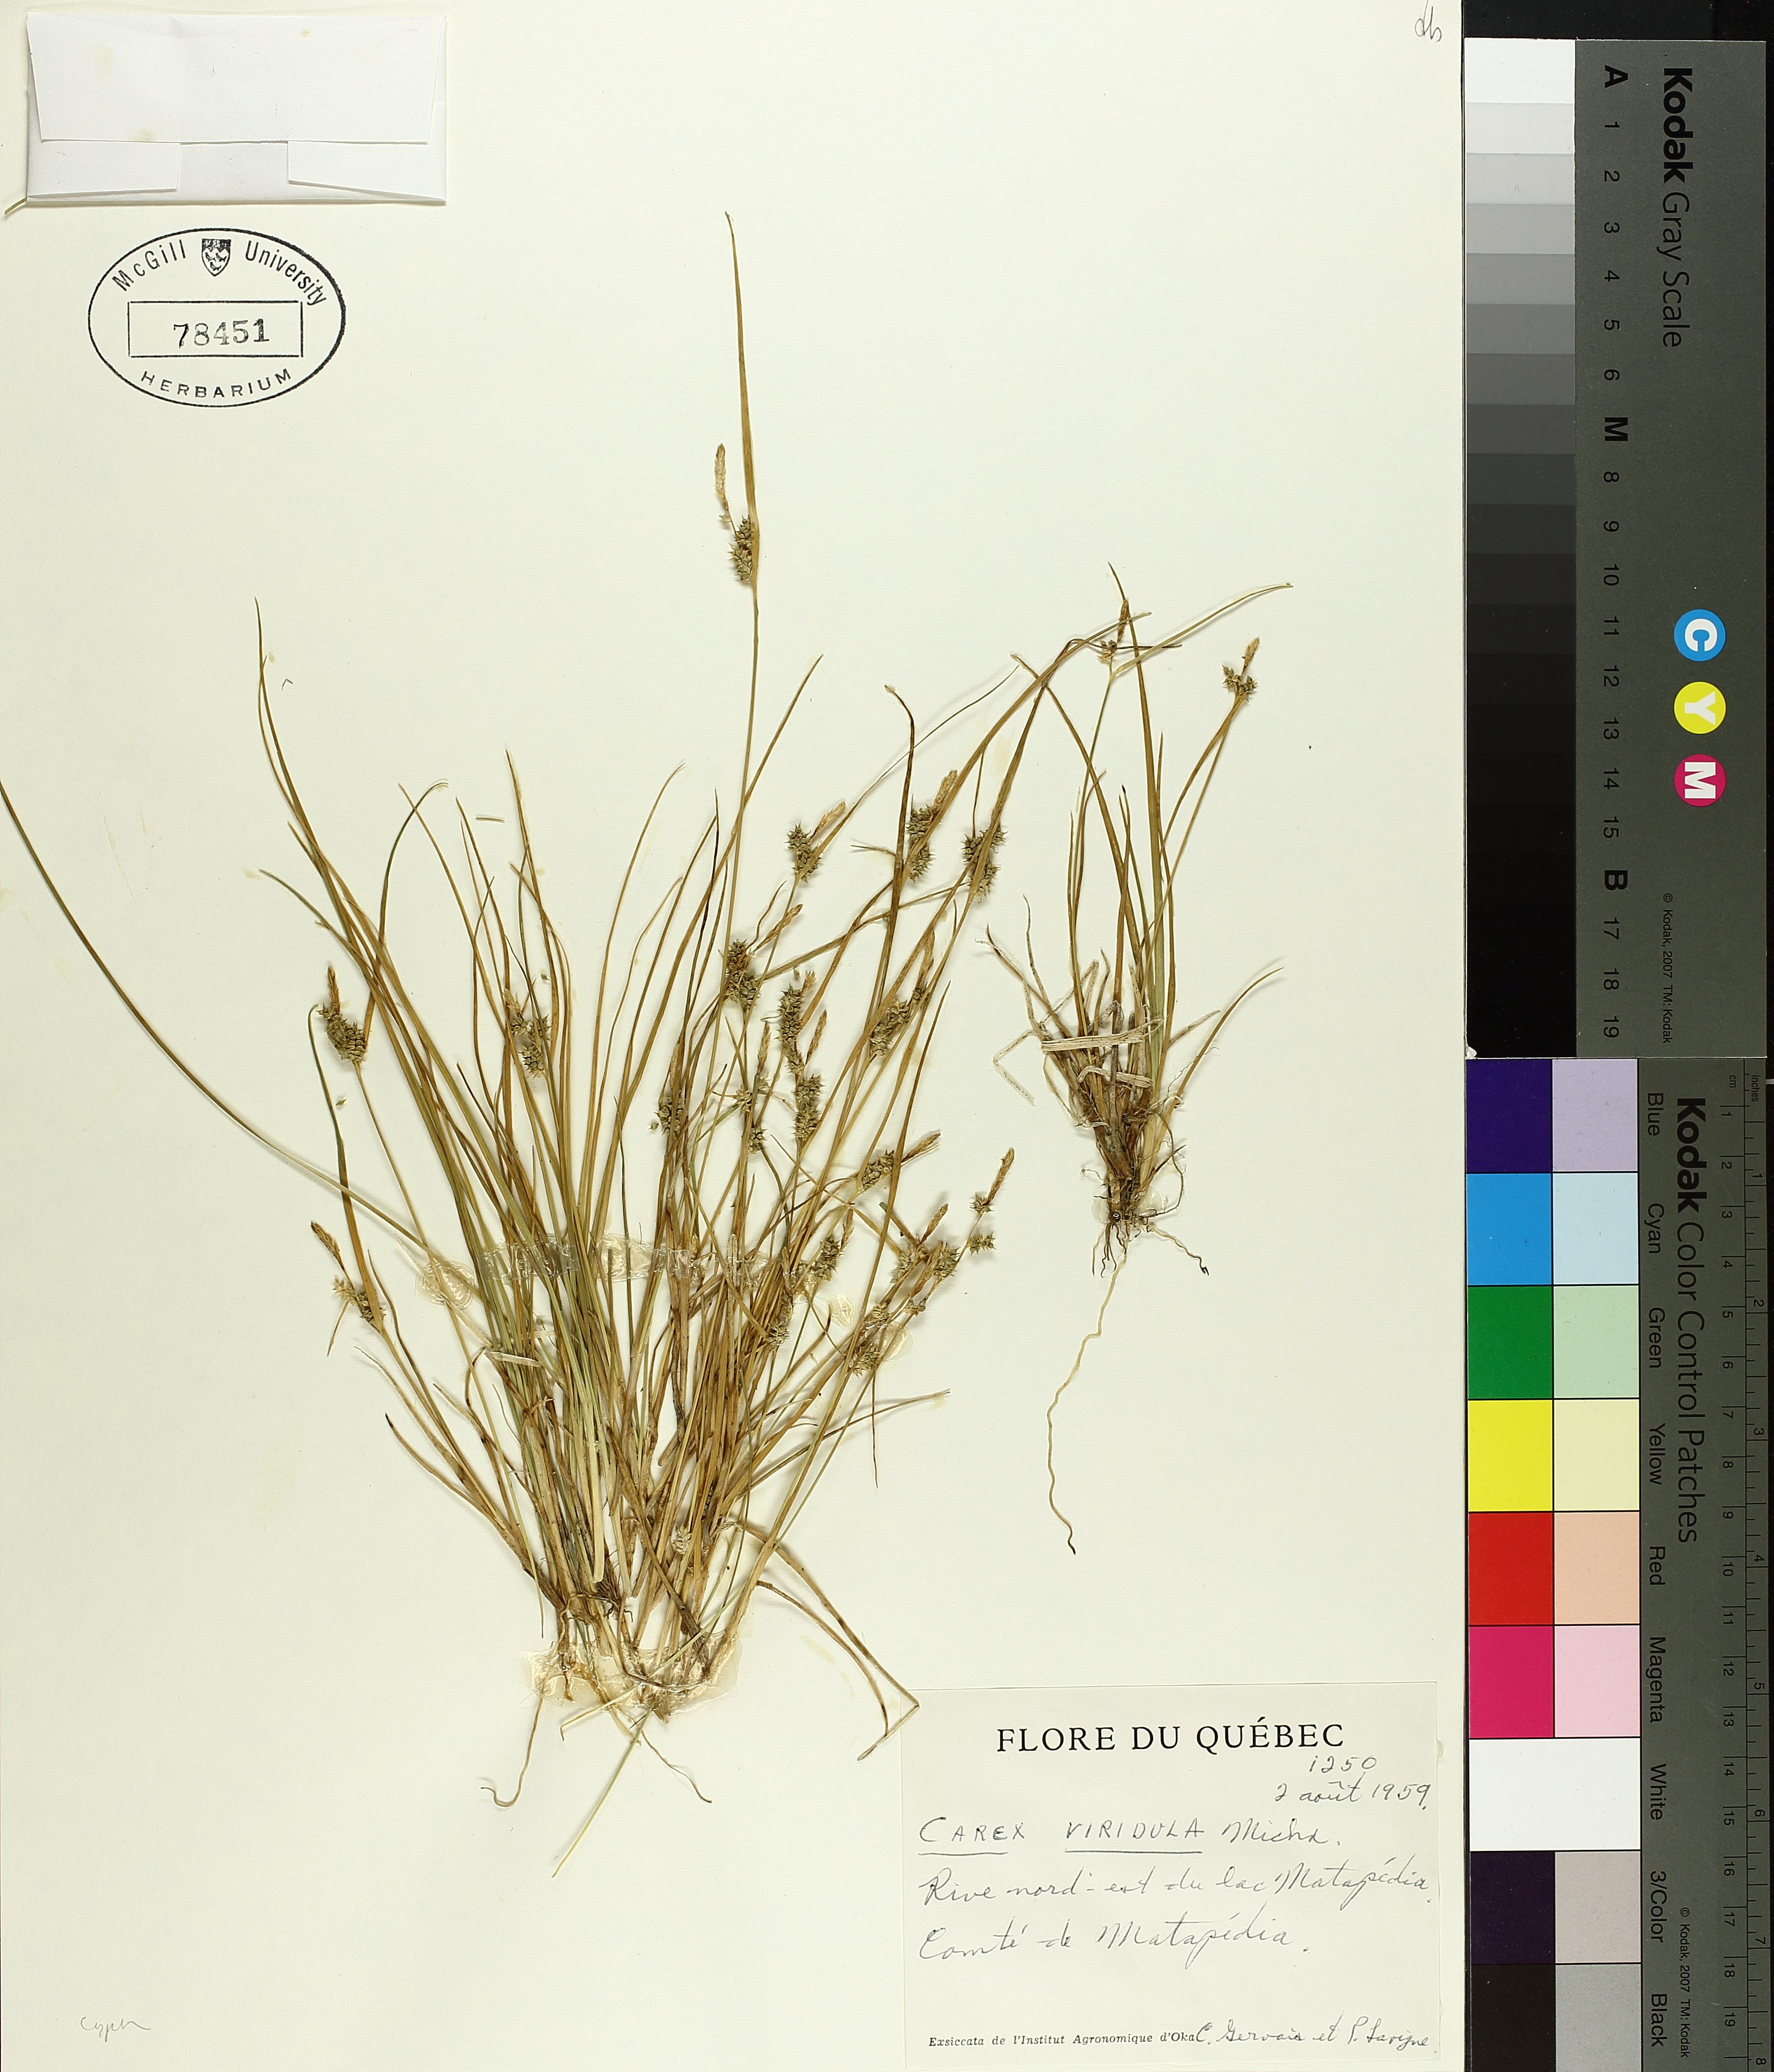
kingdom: Plantae
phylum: Tracheophyta
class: Liliopsida
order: Poales
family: Cyperaceae
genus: Carex
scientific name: Carex oederi
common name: Common & small-fruited yellow-sedge
